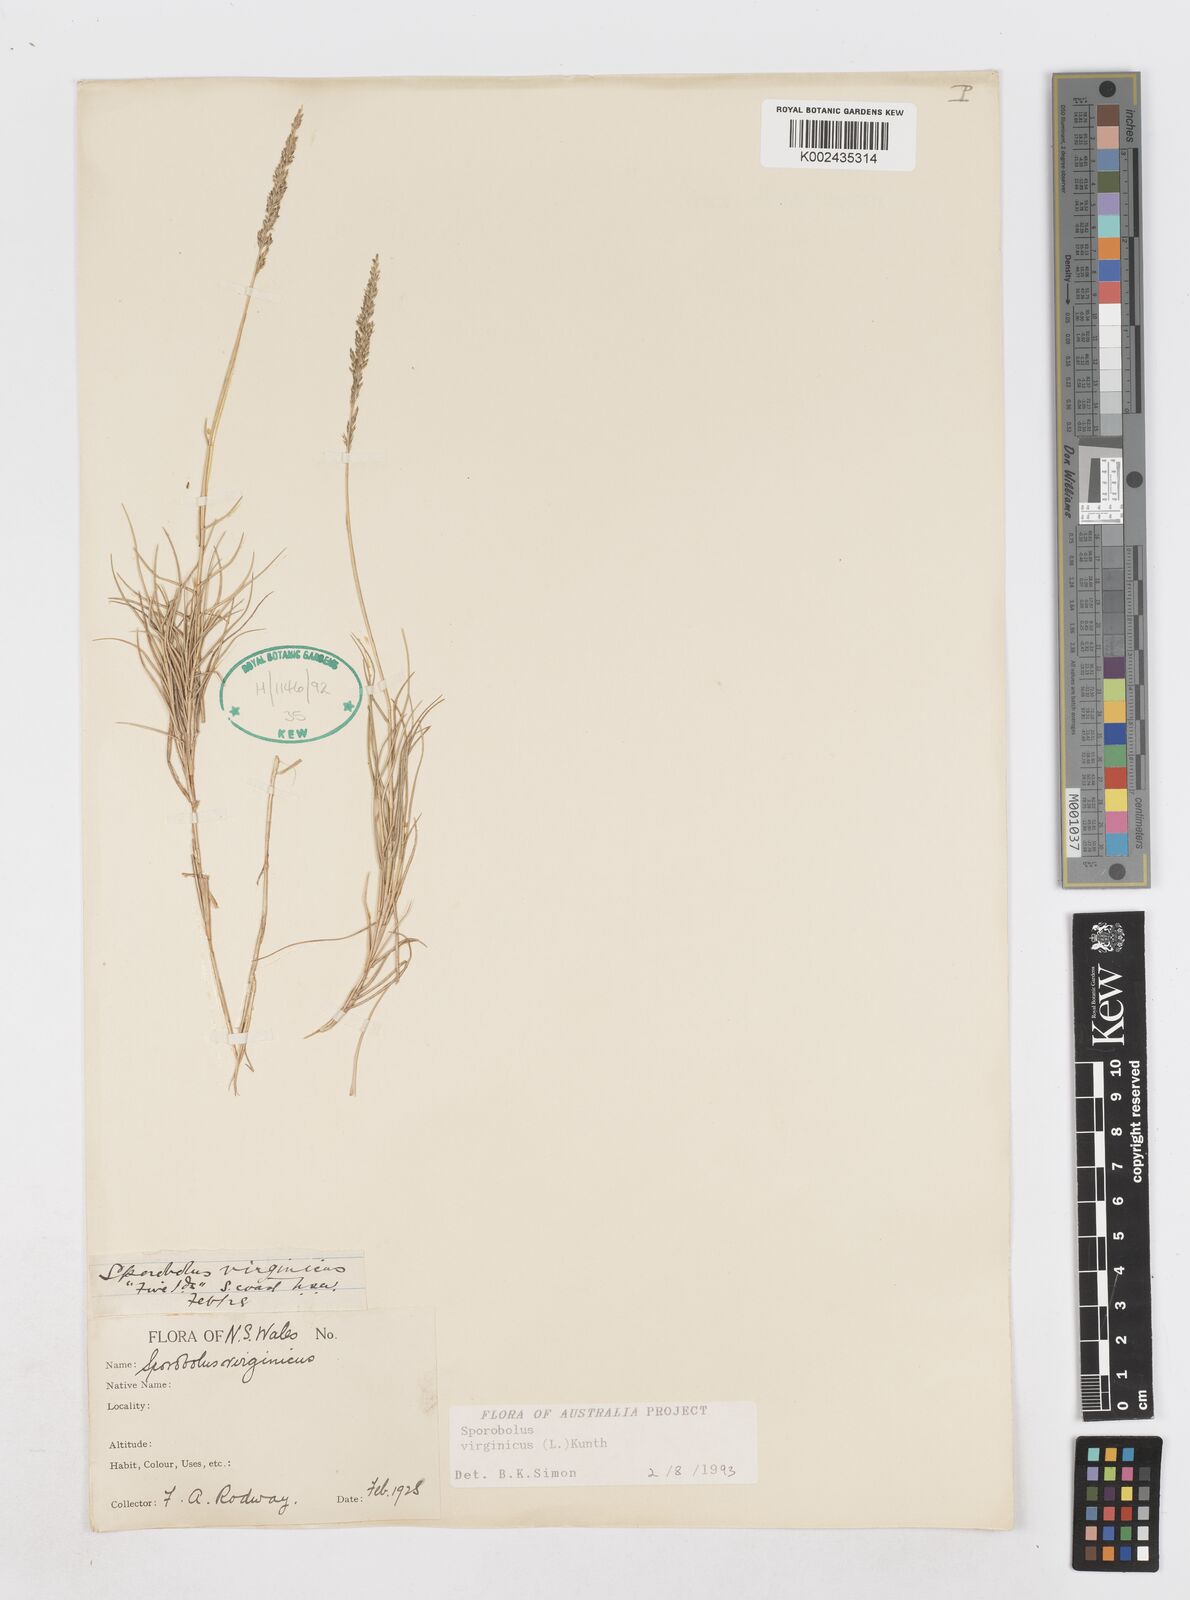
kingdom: Plantae
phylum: Tracheophyta
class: Liliopsida
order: Poales
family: Poaceae
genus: Sporobolus
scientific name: Sporobolus virginicus
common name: Beach dropseed
